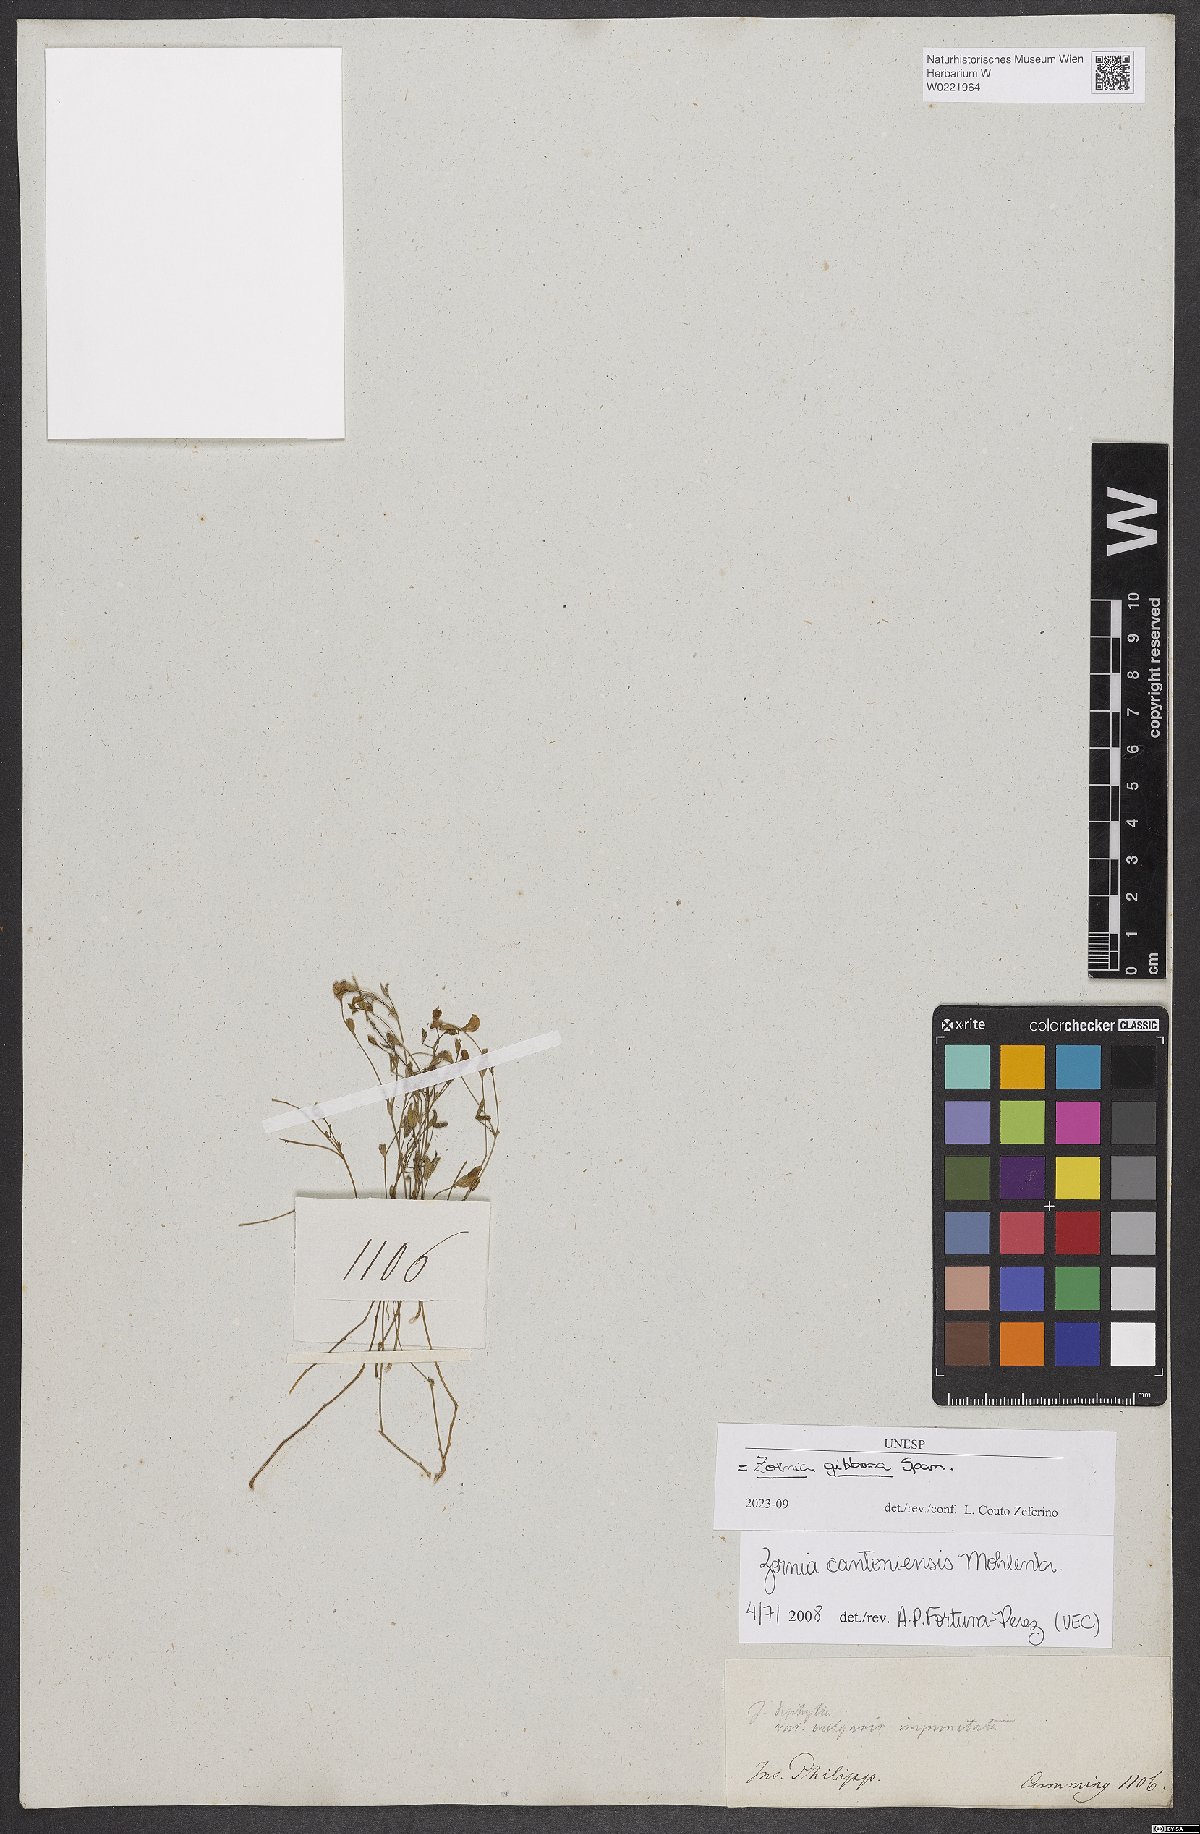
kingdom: Plantae
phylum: Tracheophyta
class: Magnoliopsida
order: Fabales
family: Fabaceae
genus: Zornia
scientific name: Zornia gibbosa
